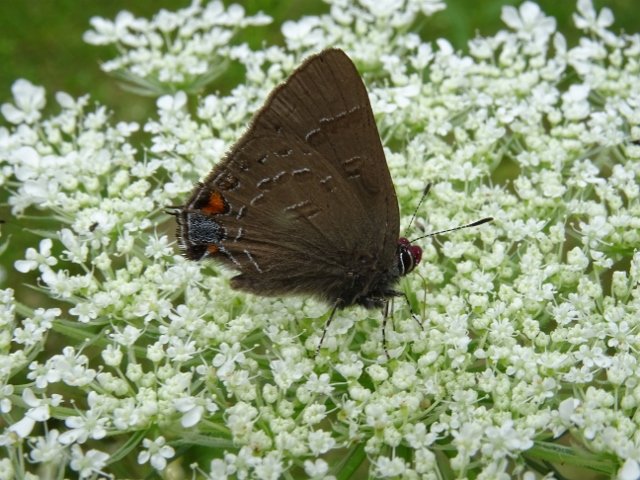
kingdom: Animalia
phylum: Arthropoda
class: Insecta
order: Lepidoptera
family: Lycaenidae
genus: Satyrium
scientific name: Satyrium calanus
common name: Banded Hairstreak
